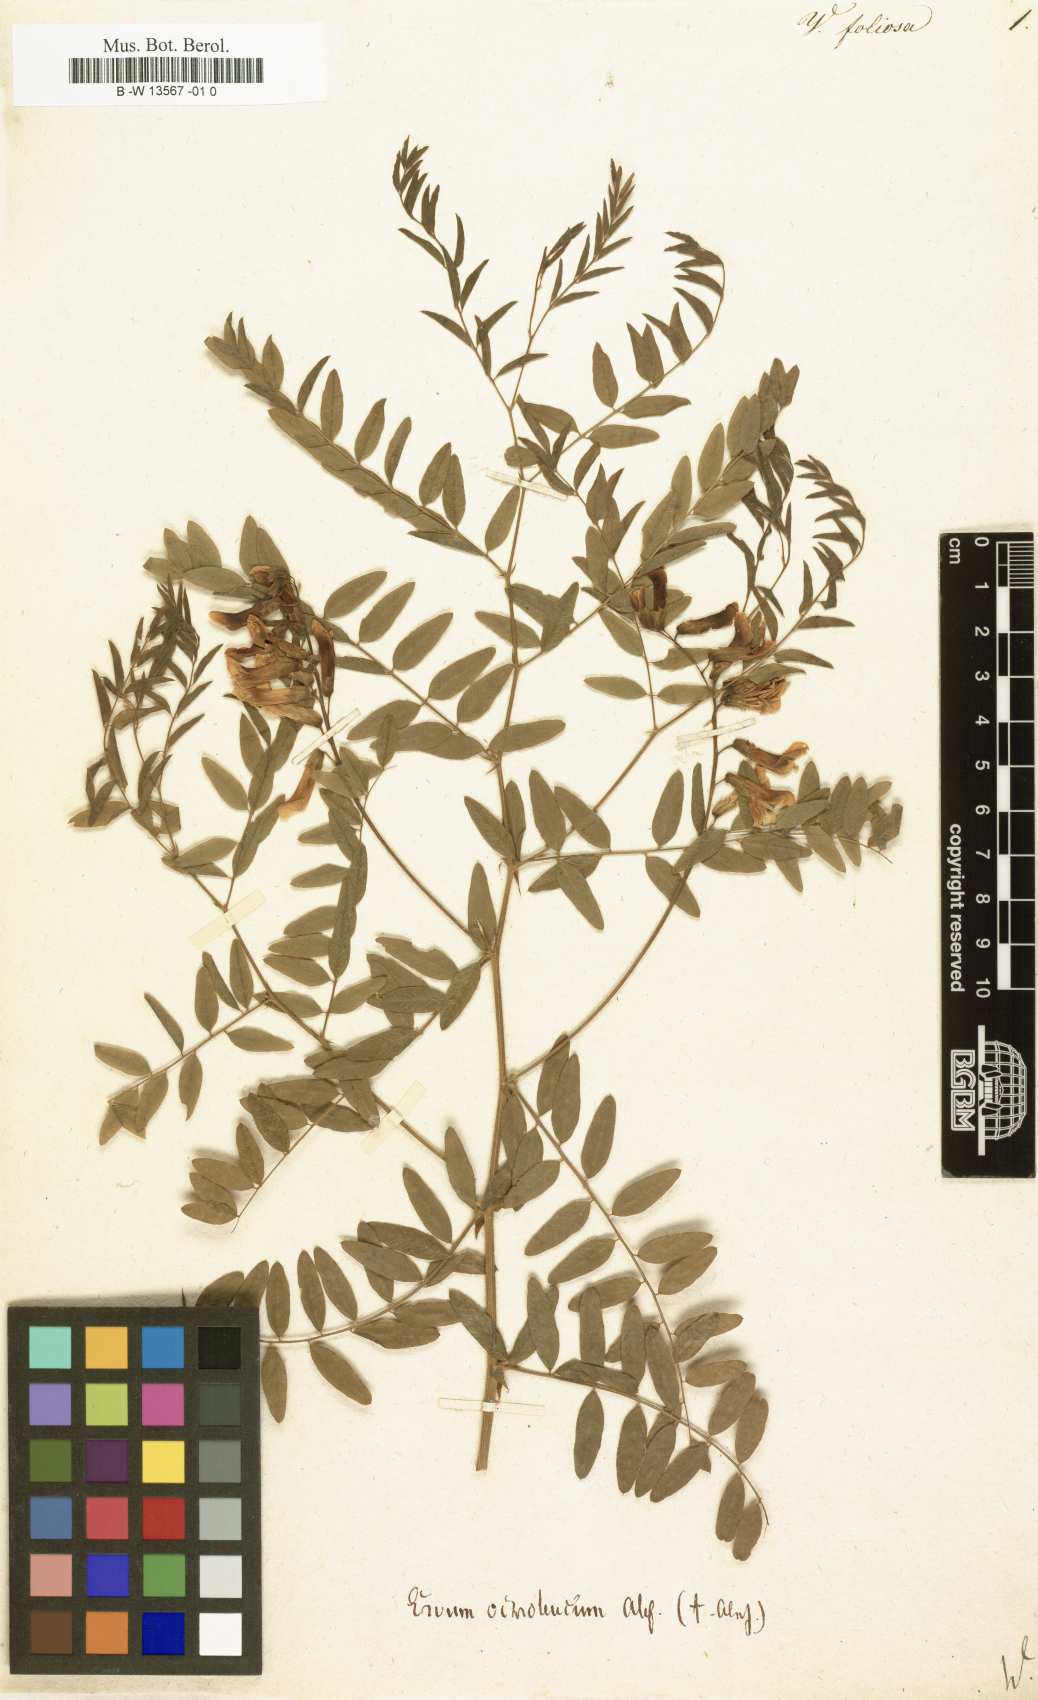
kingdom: Plantae
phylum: Tracheophyta
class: Magnoliopsida
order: Fabales
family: Fabaceae
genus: Vicia
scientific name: Vicia
